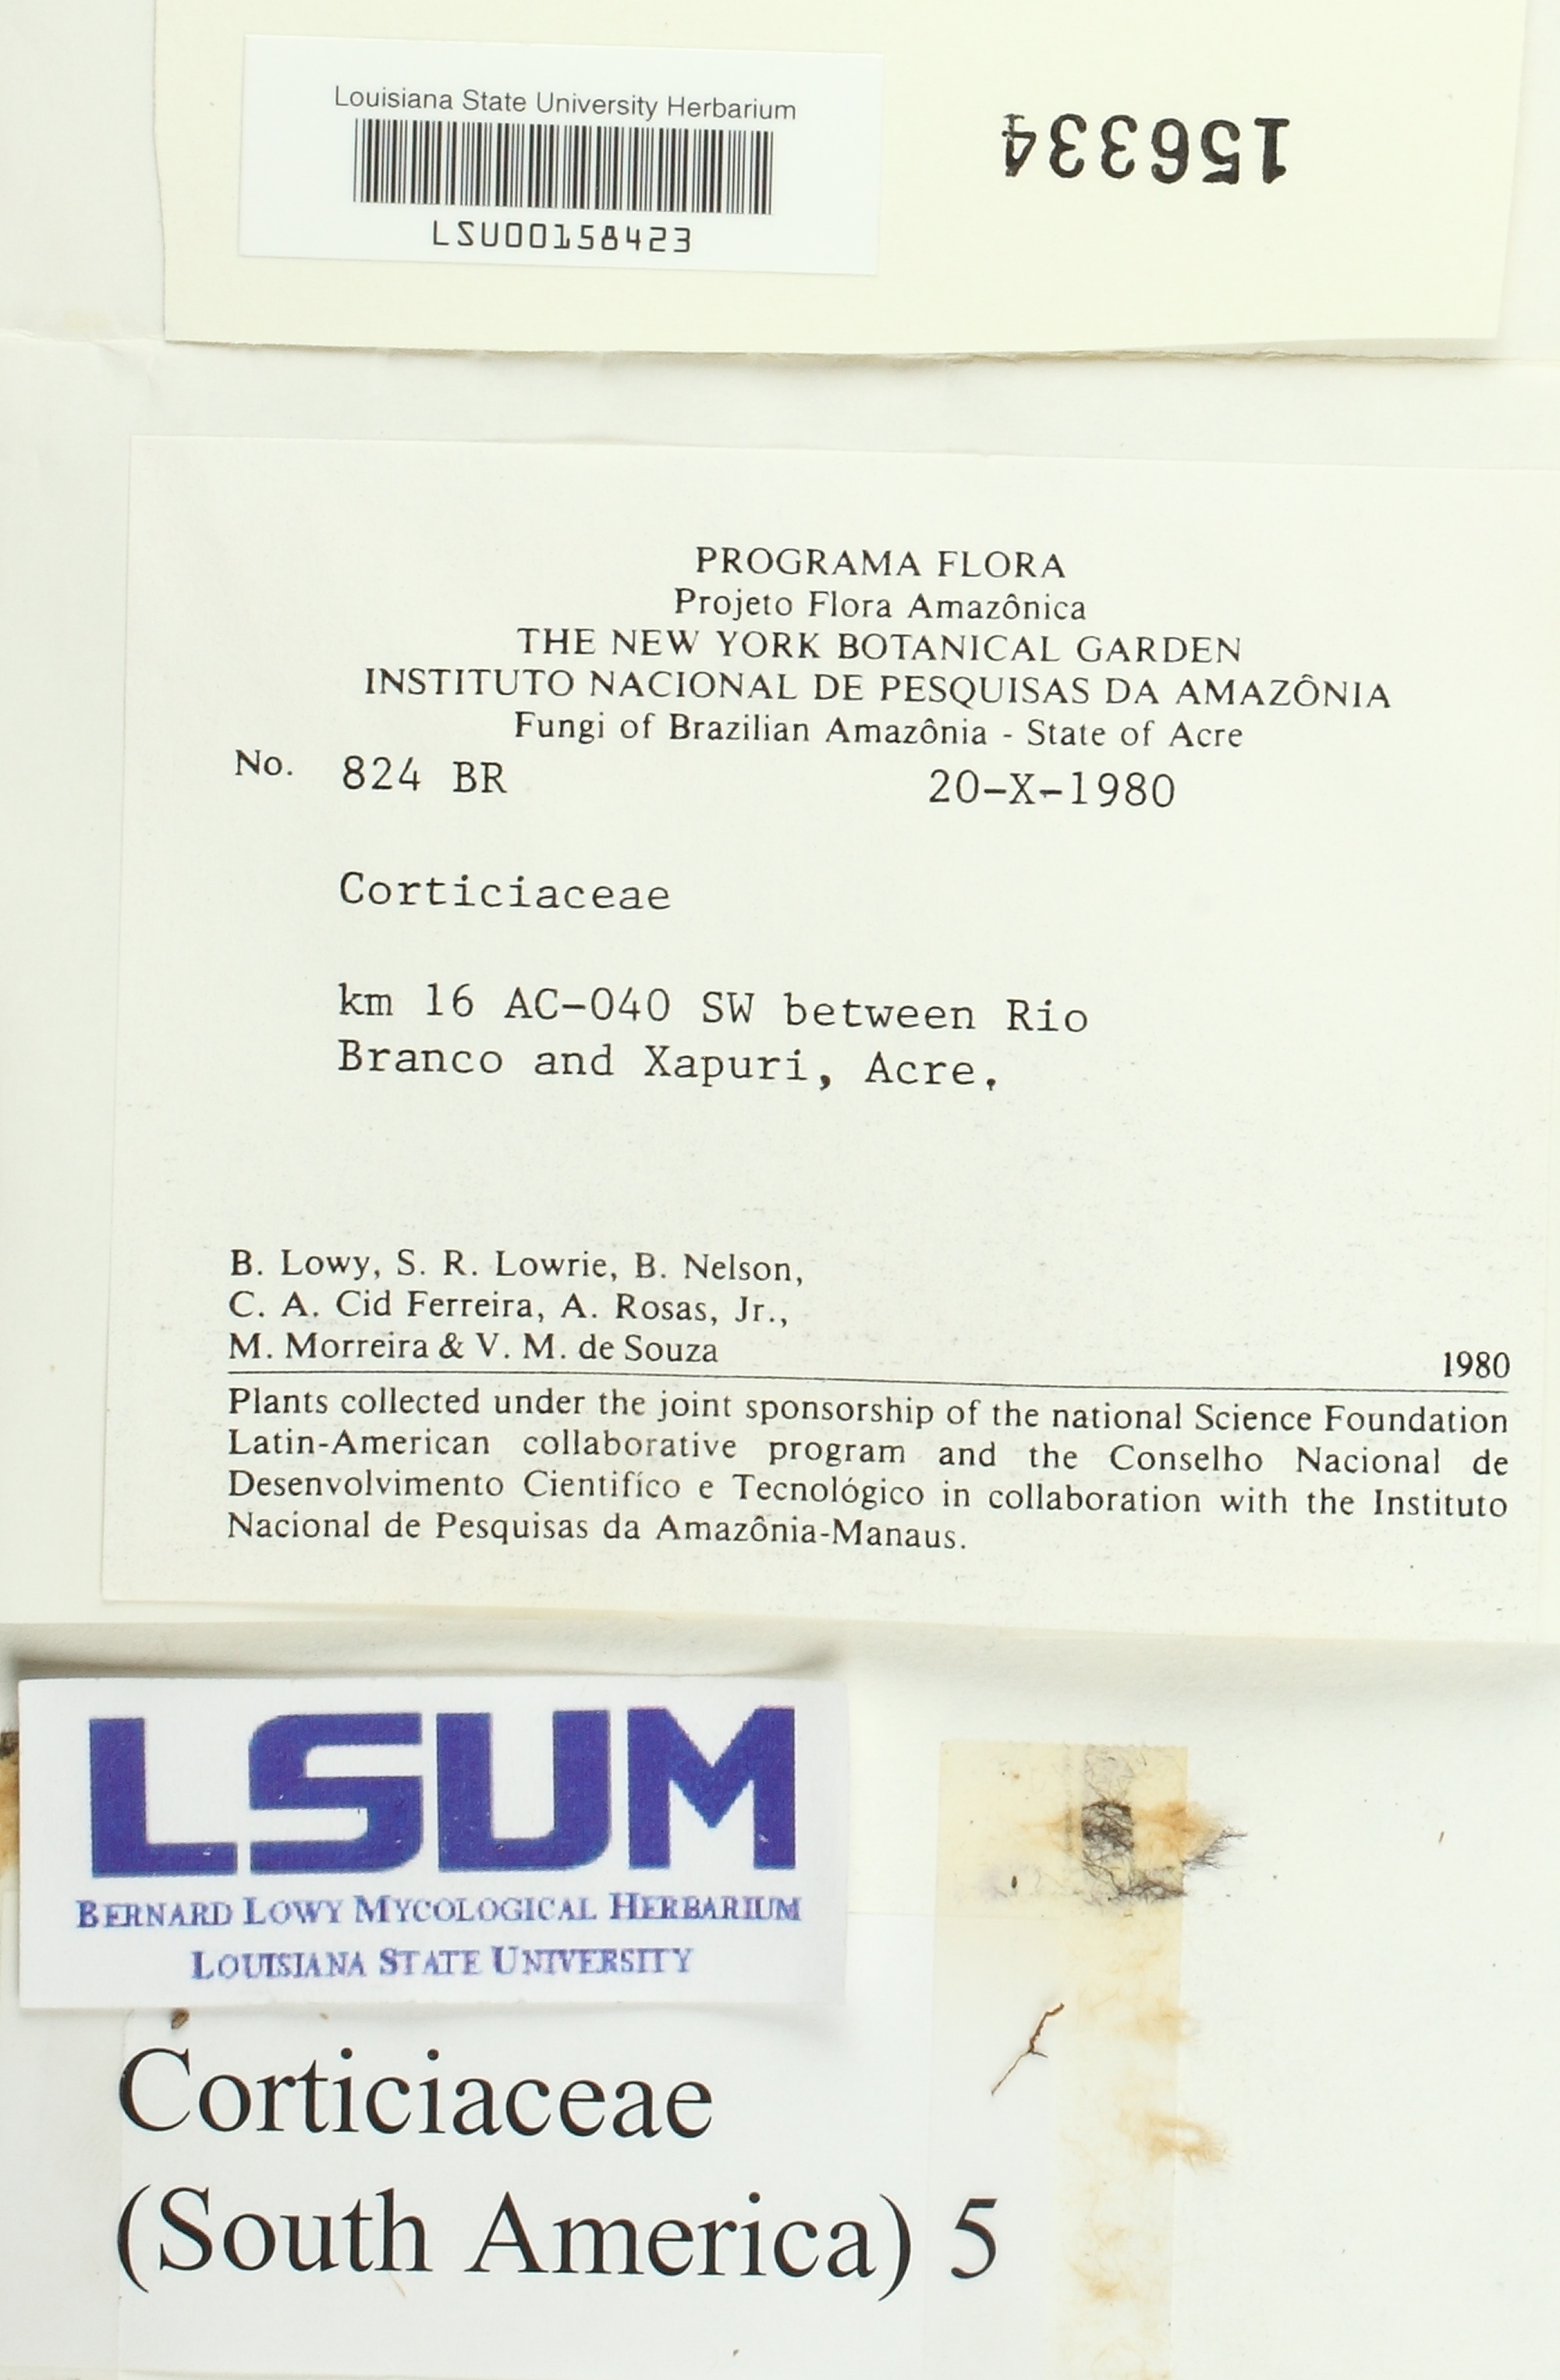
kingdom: Fungi
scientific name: Fungi
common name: Fungi
